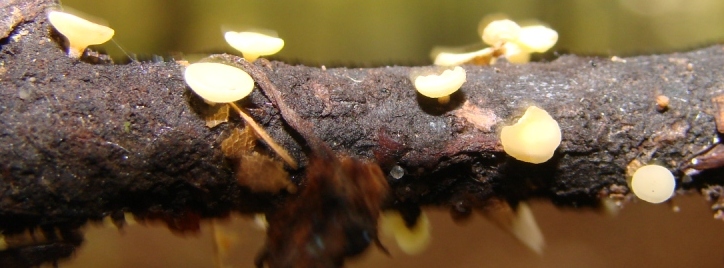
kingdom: Fungi
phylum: Ascomycota
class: Leotiomycetes
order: Helotiales
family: Helotiaceae
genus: Hymenoscyphus
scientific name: Hymenoscyphus serotinus
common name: krumsporet stilkskive
